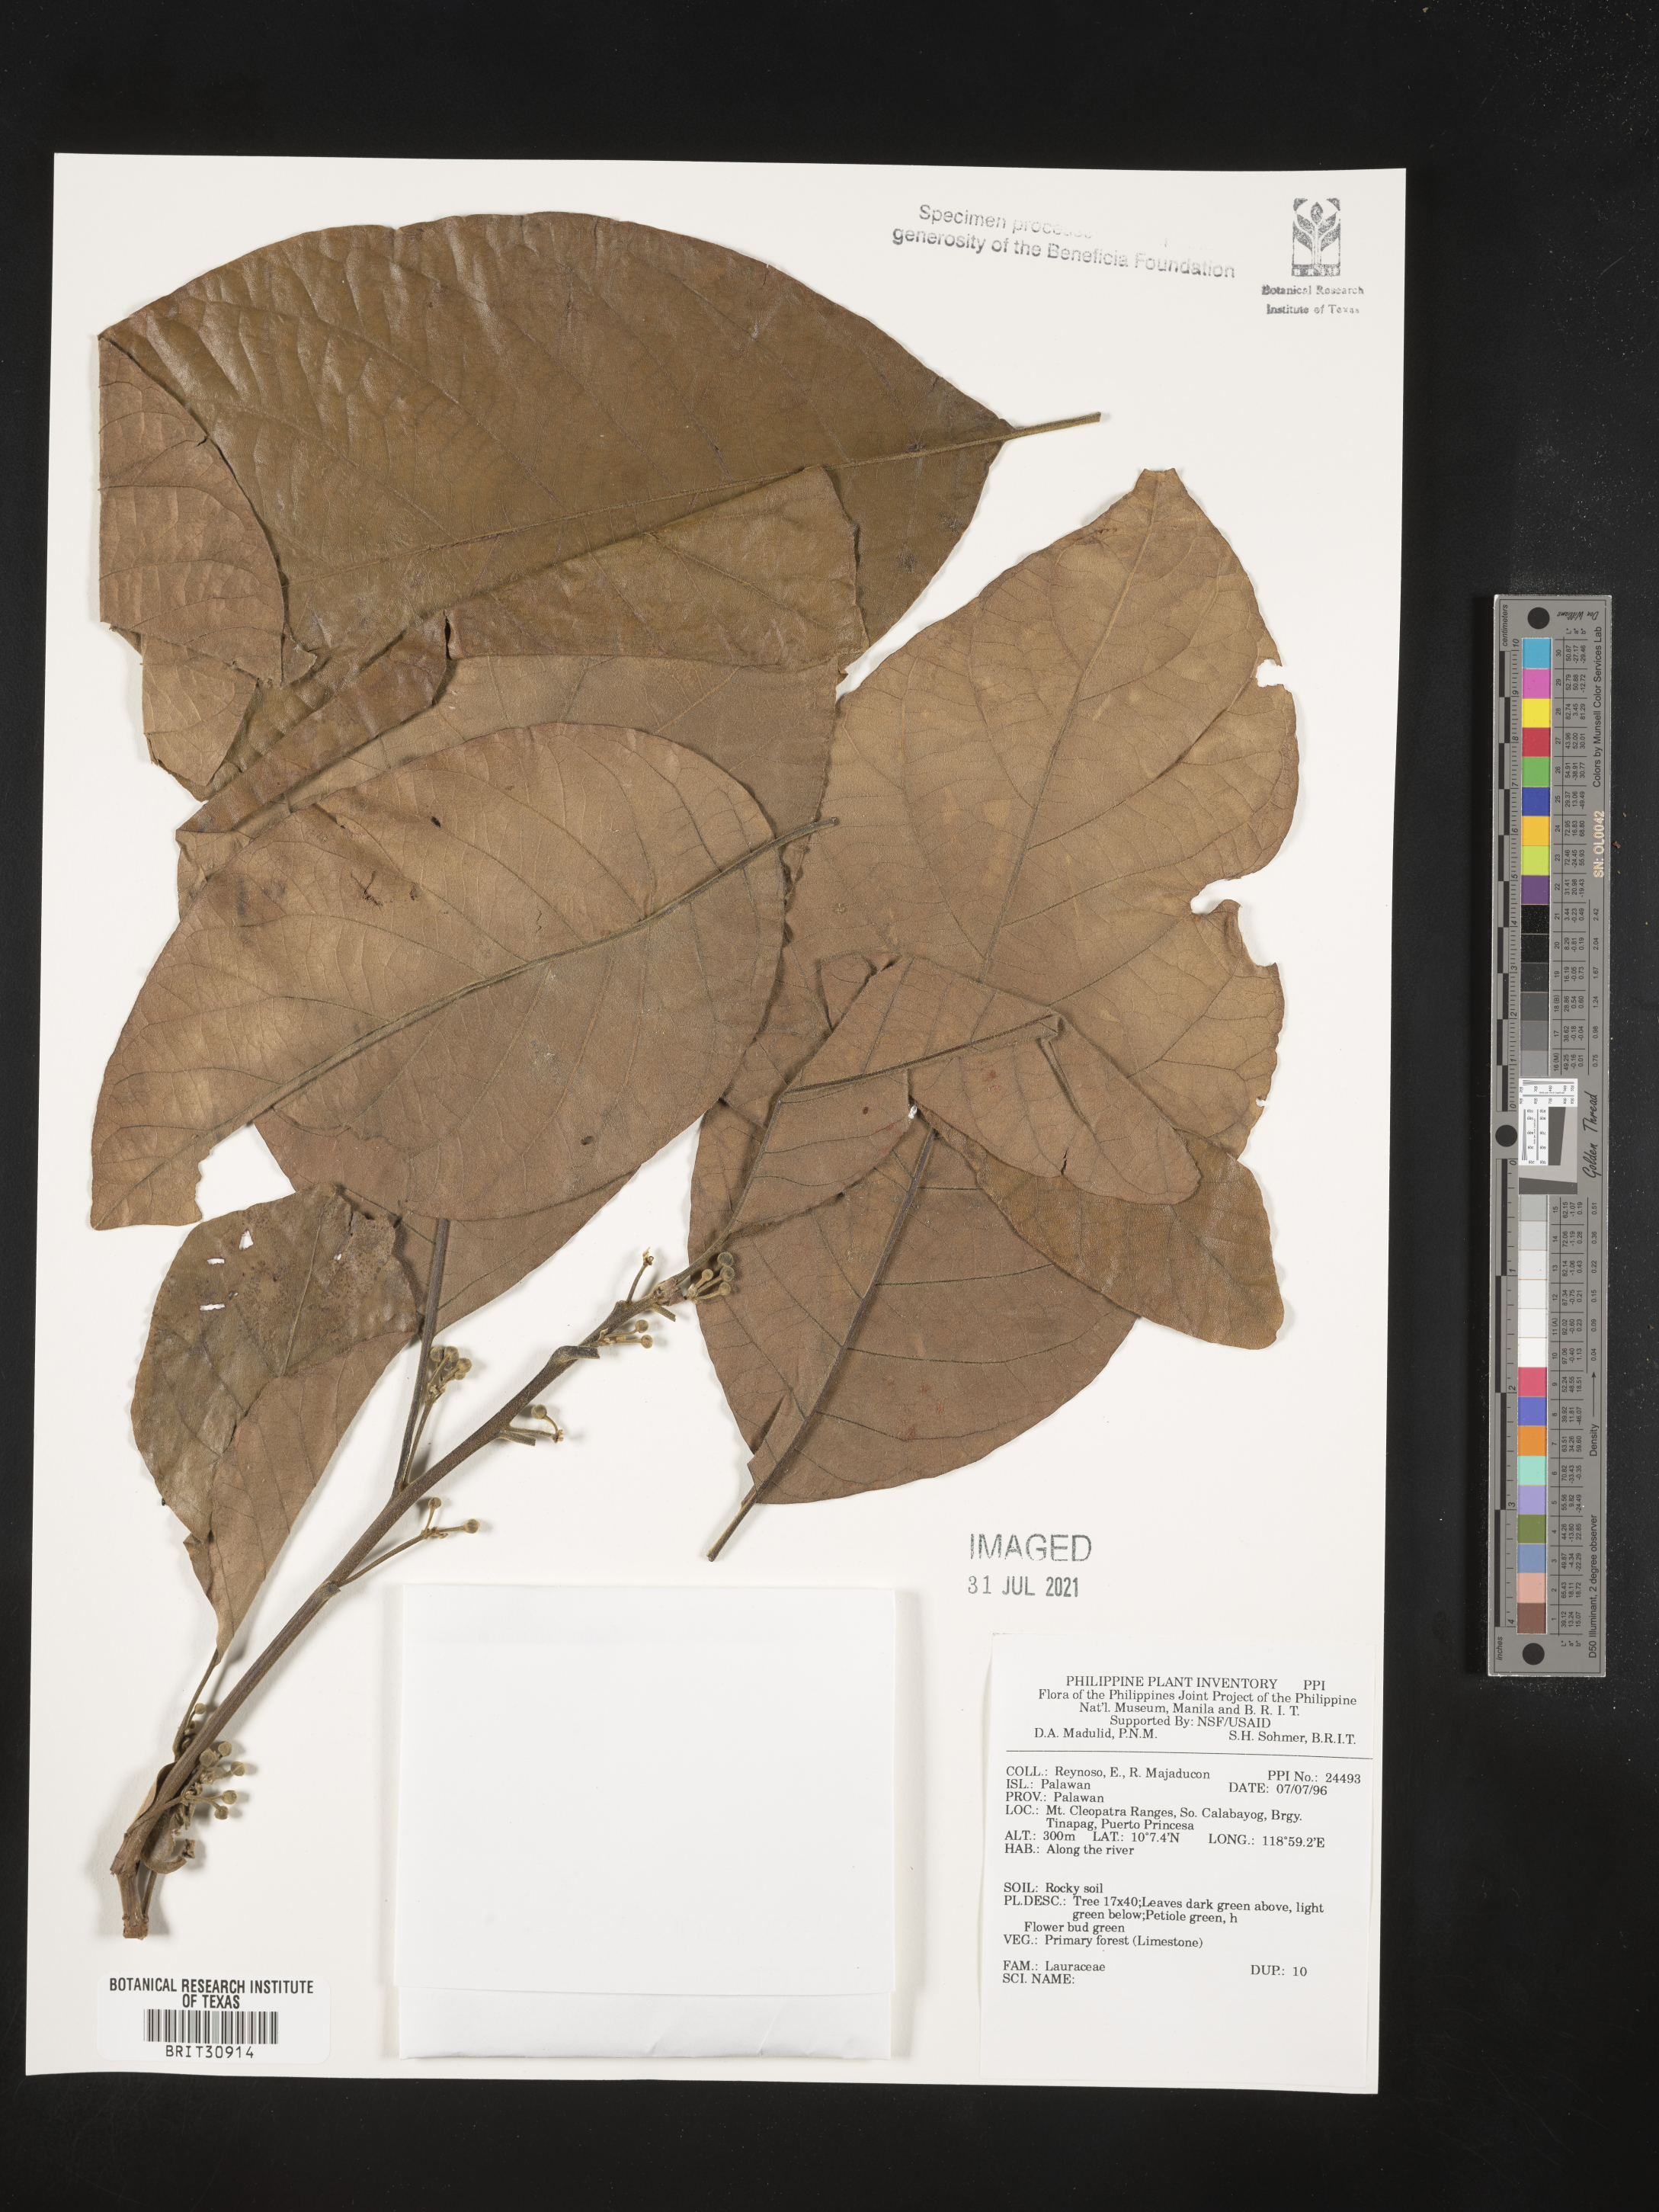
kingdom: Plantae
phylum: Tracheophyta
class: Magnoliopsida
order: Laurales
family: Lauraceae
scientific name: Lauraceae
